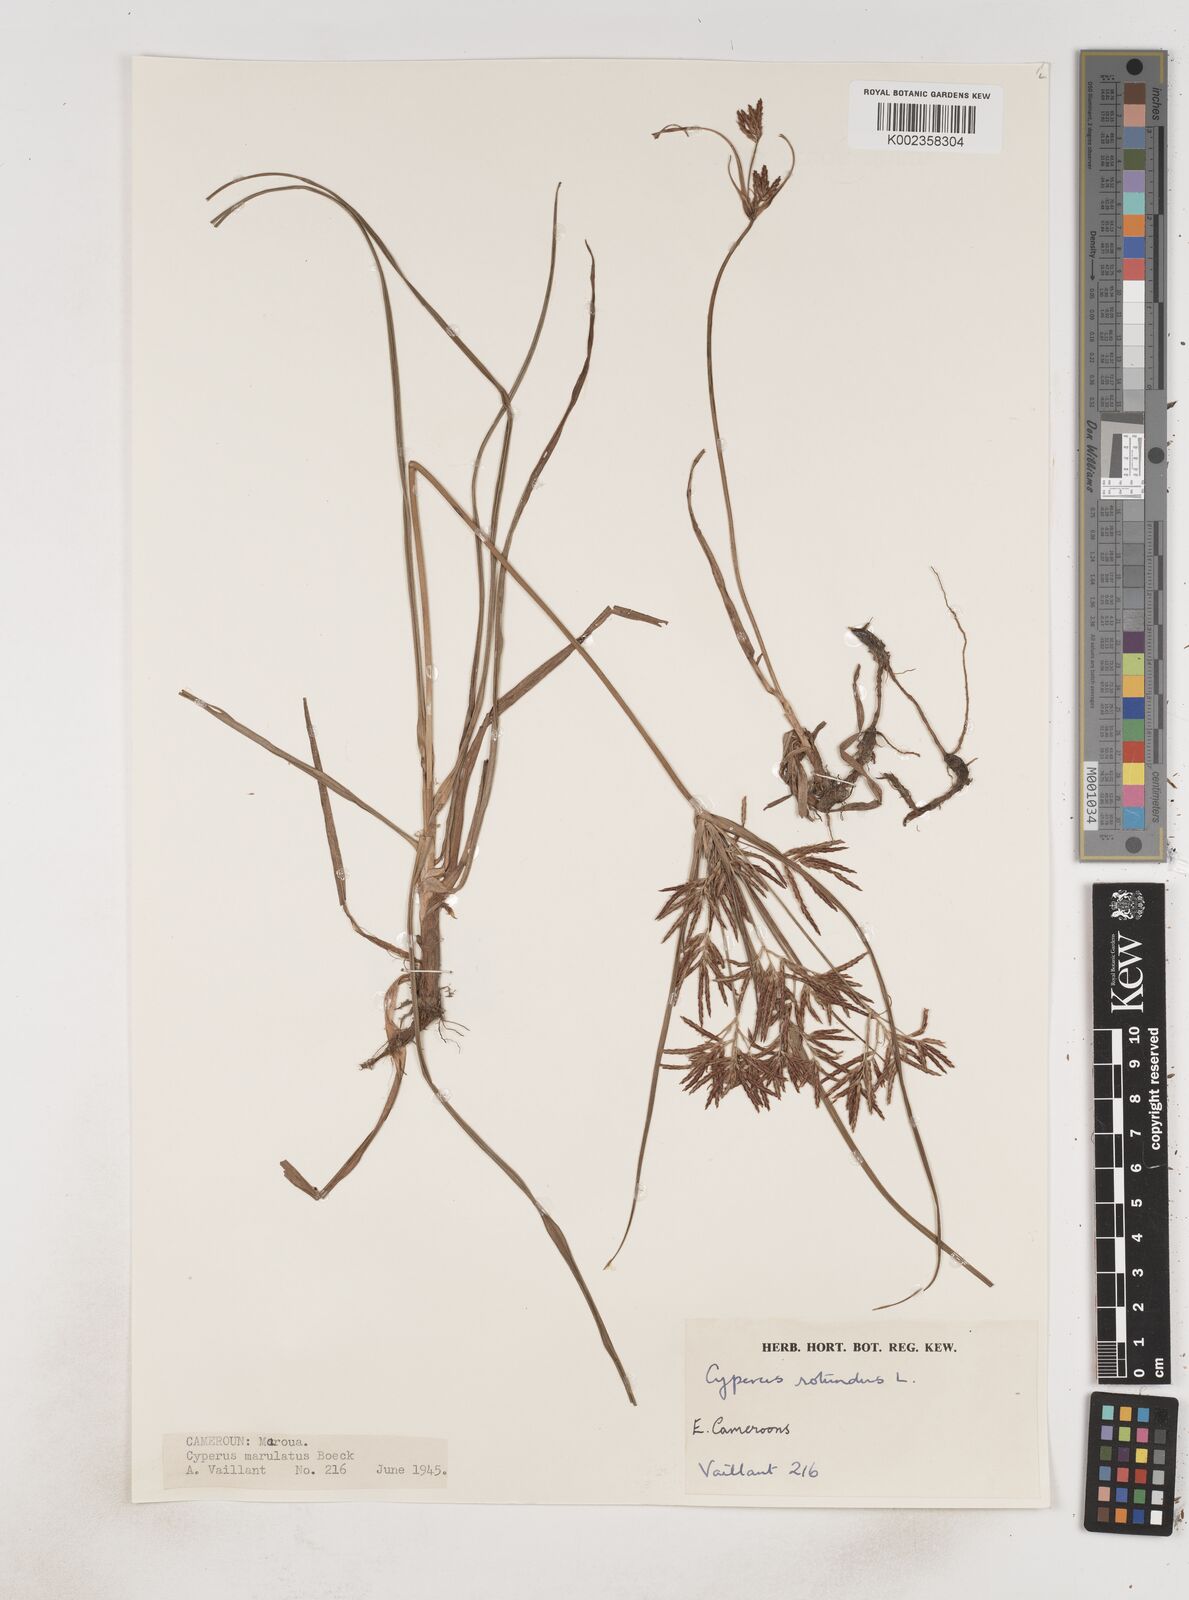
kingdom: Plantae
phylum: Tracheophyta
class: Liliopsida
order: Poales
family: Cyperaceae
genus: Cyperus
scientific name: Cyperus rotundus
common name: Nutgrass
